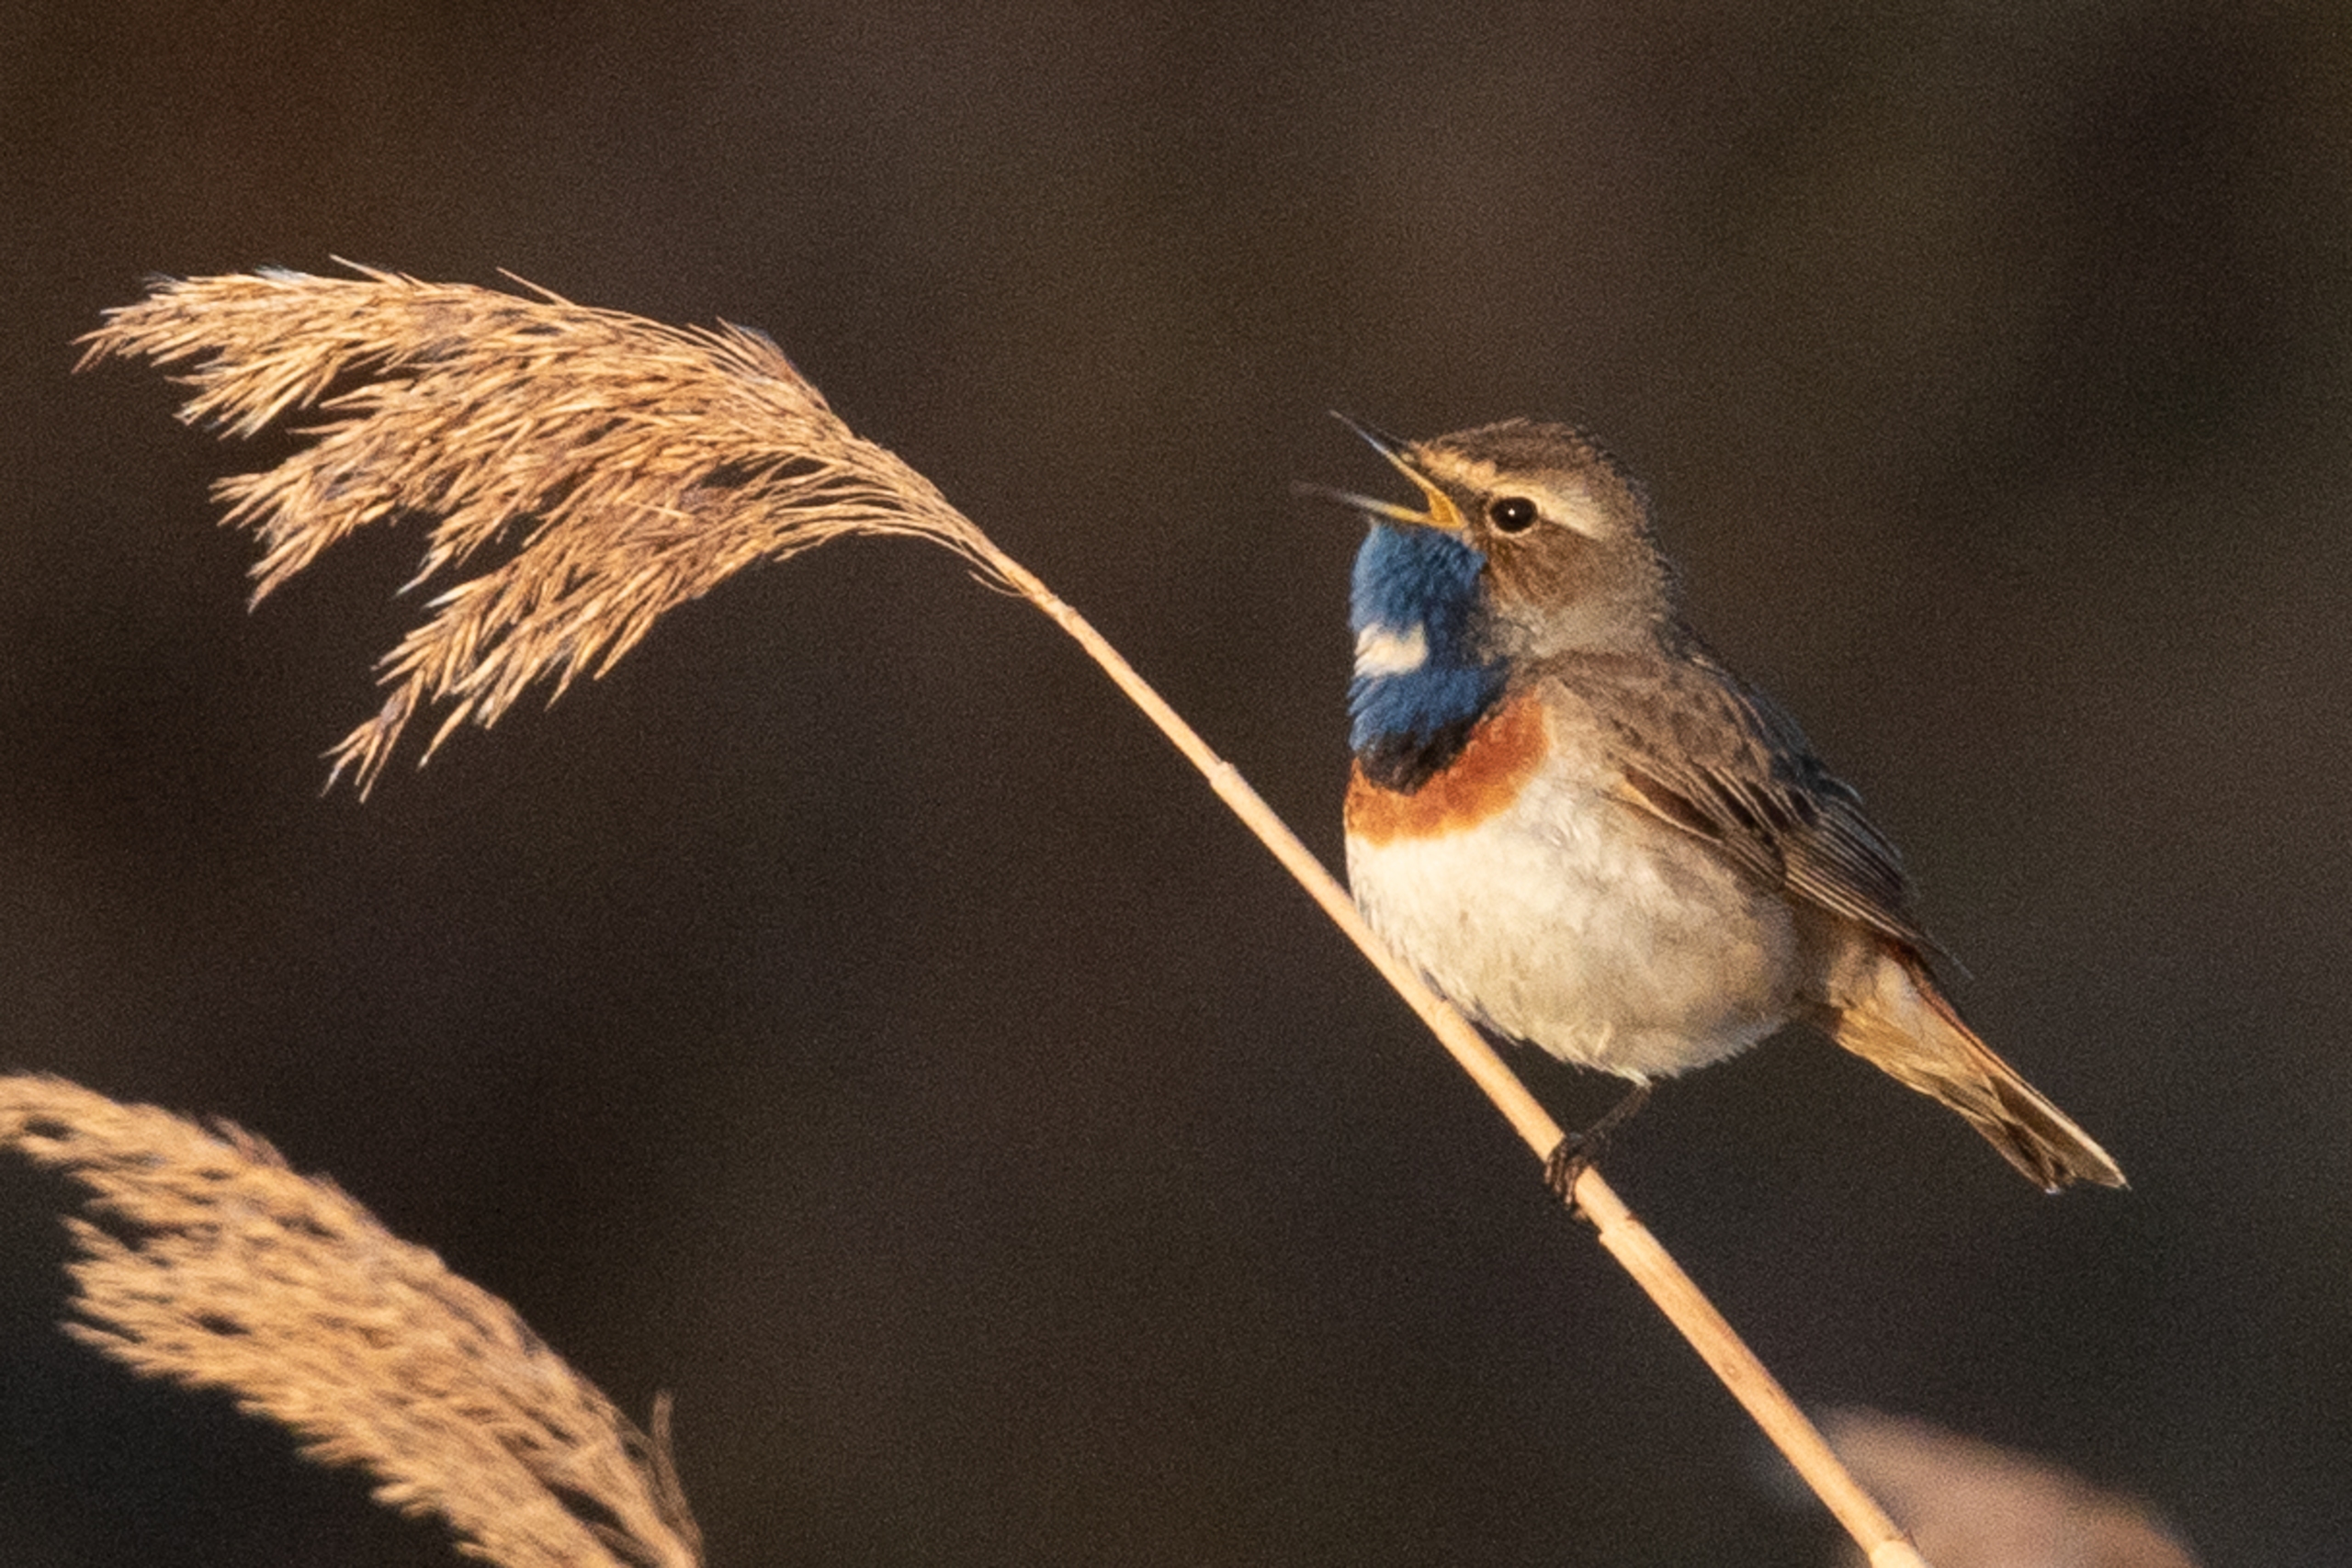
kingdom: Animalia
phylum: Chordata
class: Aves
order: Passeriformes
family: Muscicapidae
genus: Luscinia
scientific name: Luscinia svecica
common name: Sydlig blåhals
